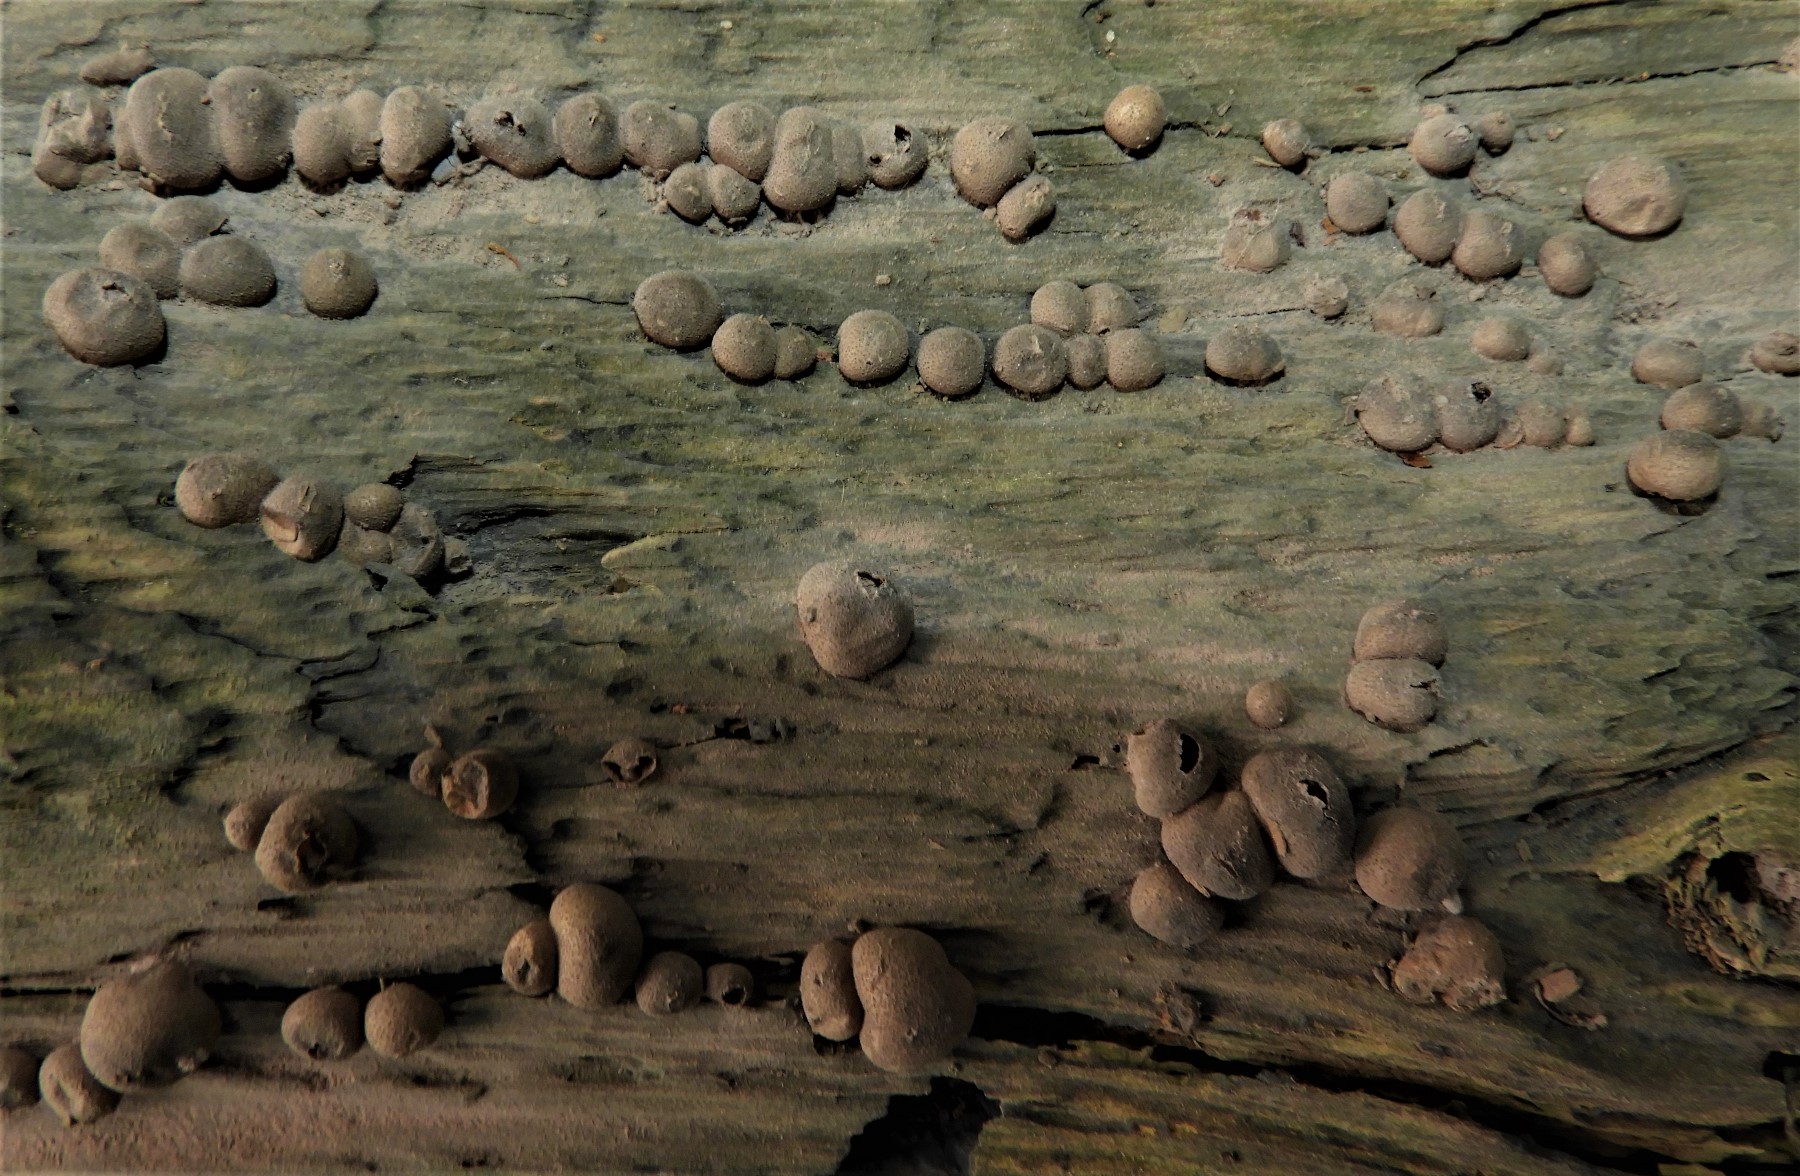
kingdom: Protozoa
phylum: Mycetozoa
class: Myxomycetes
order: Cribrariales
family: Tubiferaceae
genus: Lycogala
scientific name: Lycogala epidendrum
